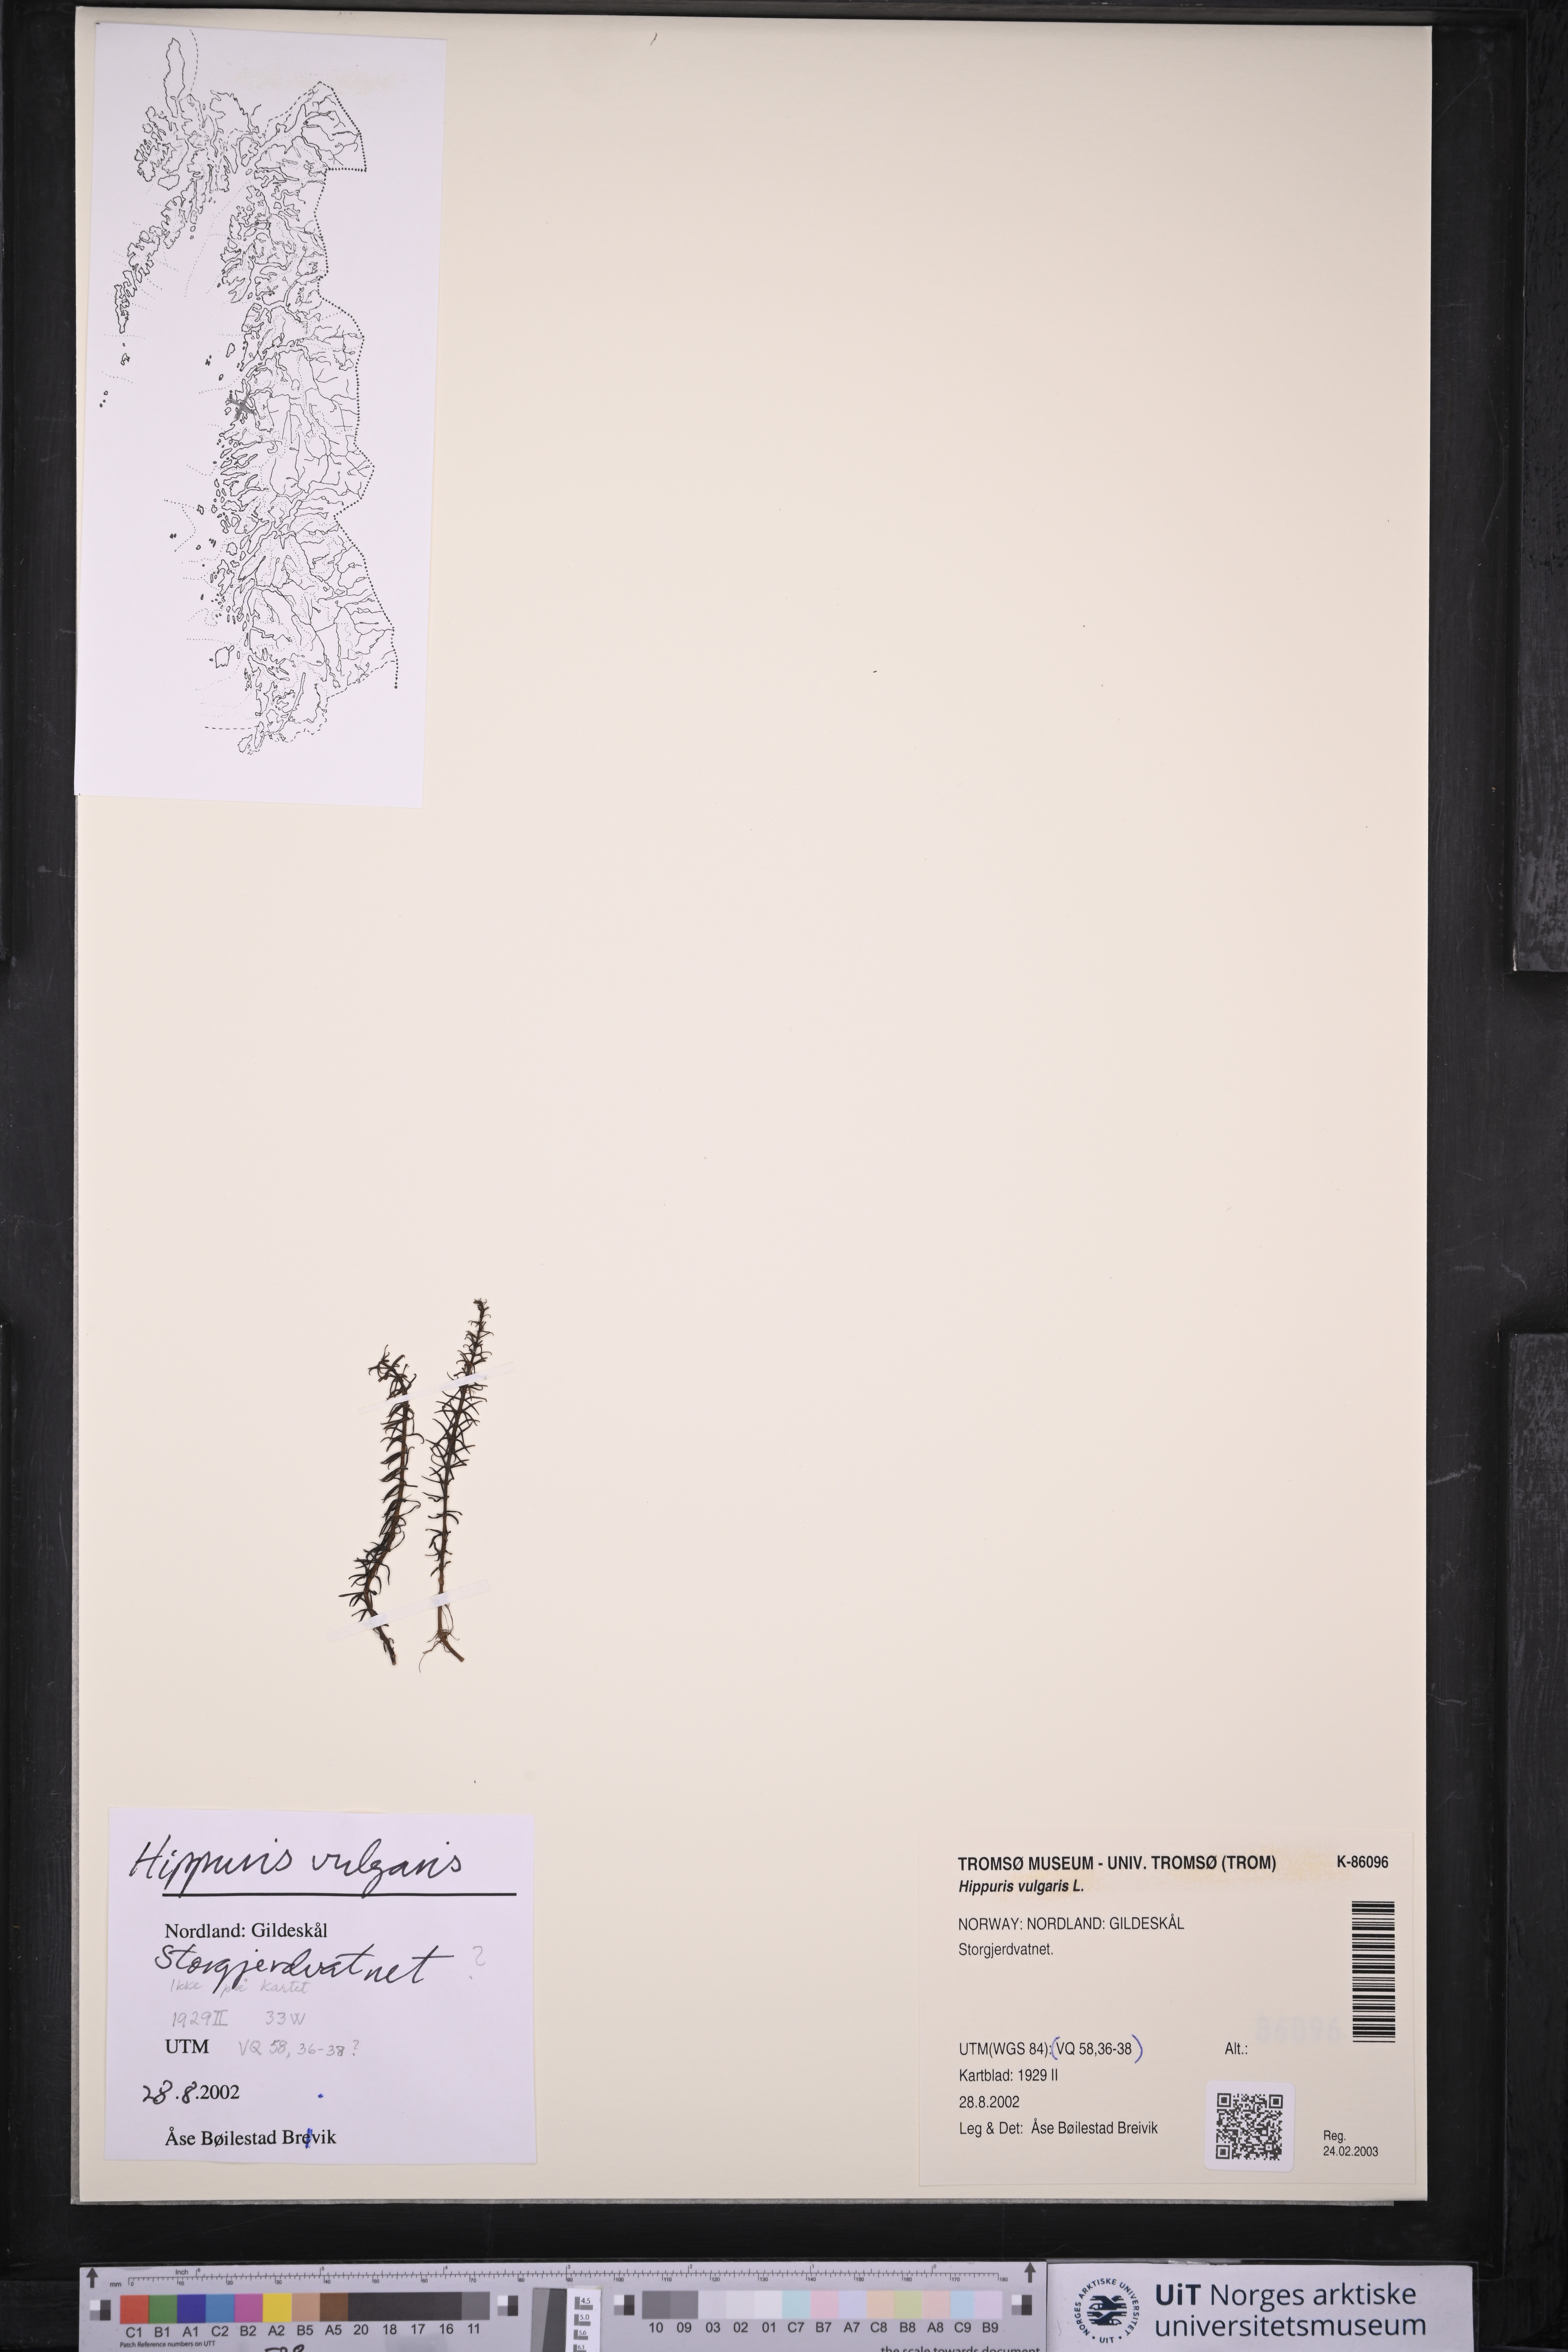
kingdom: Plantae
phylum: Tracheophyta
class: Magnoliopsida
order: Lamiales
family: Plantaginaceae
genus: Hippuris
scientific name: Hippuris vulgaris
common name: Mare's-tail
